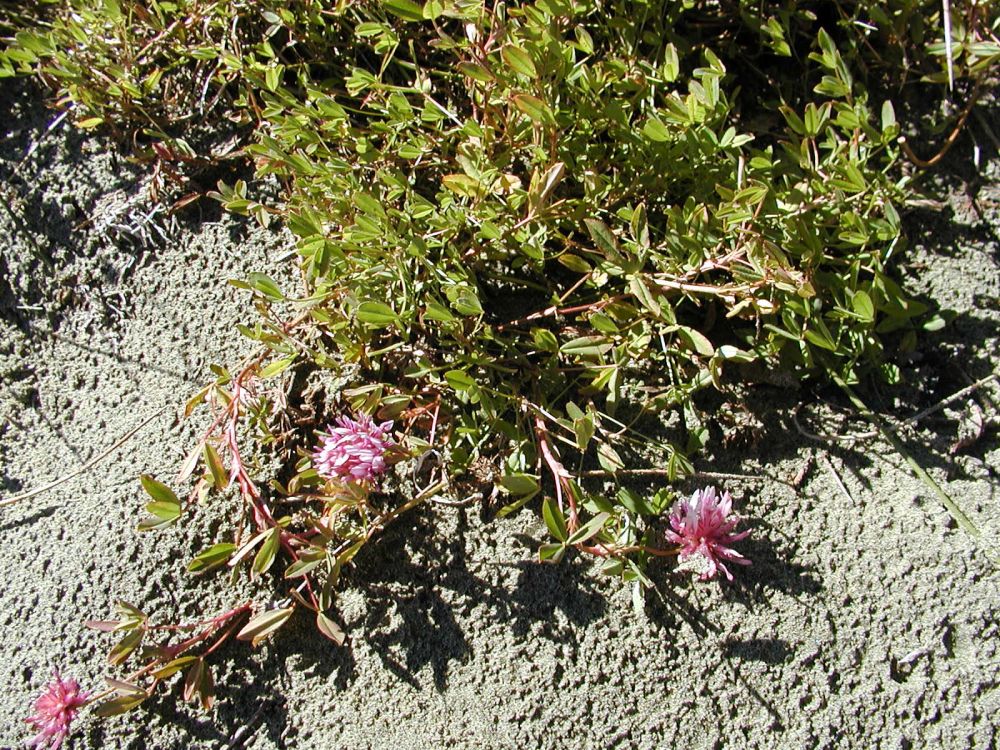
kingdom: Plantae
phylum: Tracheophyta
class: Magnoliopsida
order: Fabales
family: Fabaceae
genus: Trifolium
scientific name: Trifolium wormskioldii
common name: Springbank clover
